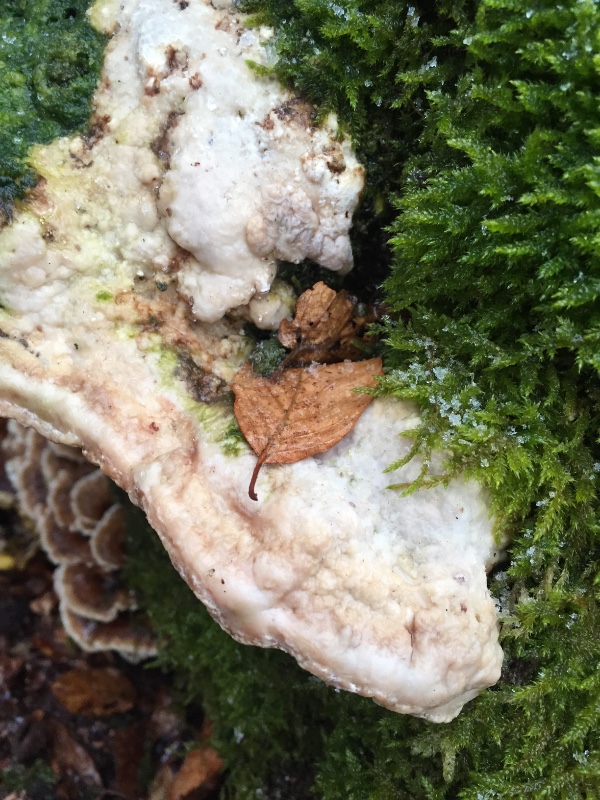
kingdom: Fungi
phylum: Basidiomycota
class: Agaricomycetes
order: Polyporales
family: Polyporaceae
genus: Trametes
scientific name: Trametes gibbosa
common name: puklet læderporesvamp
